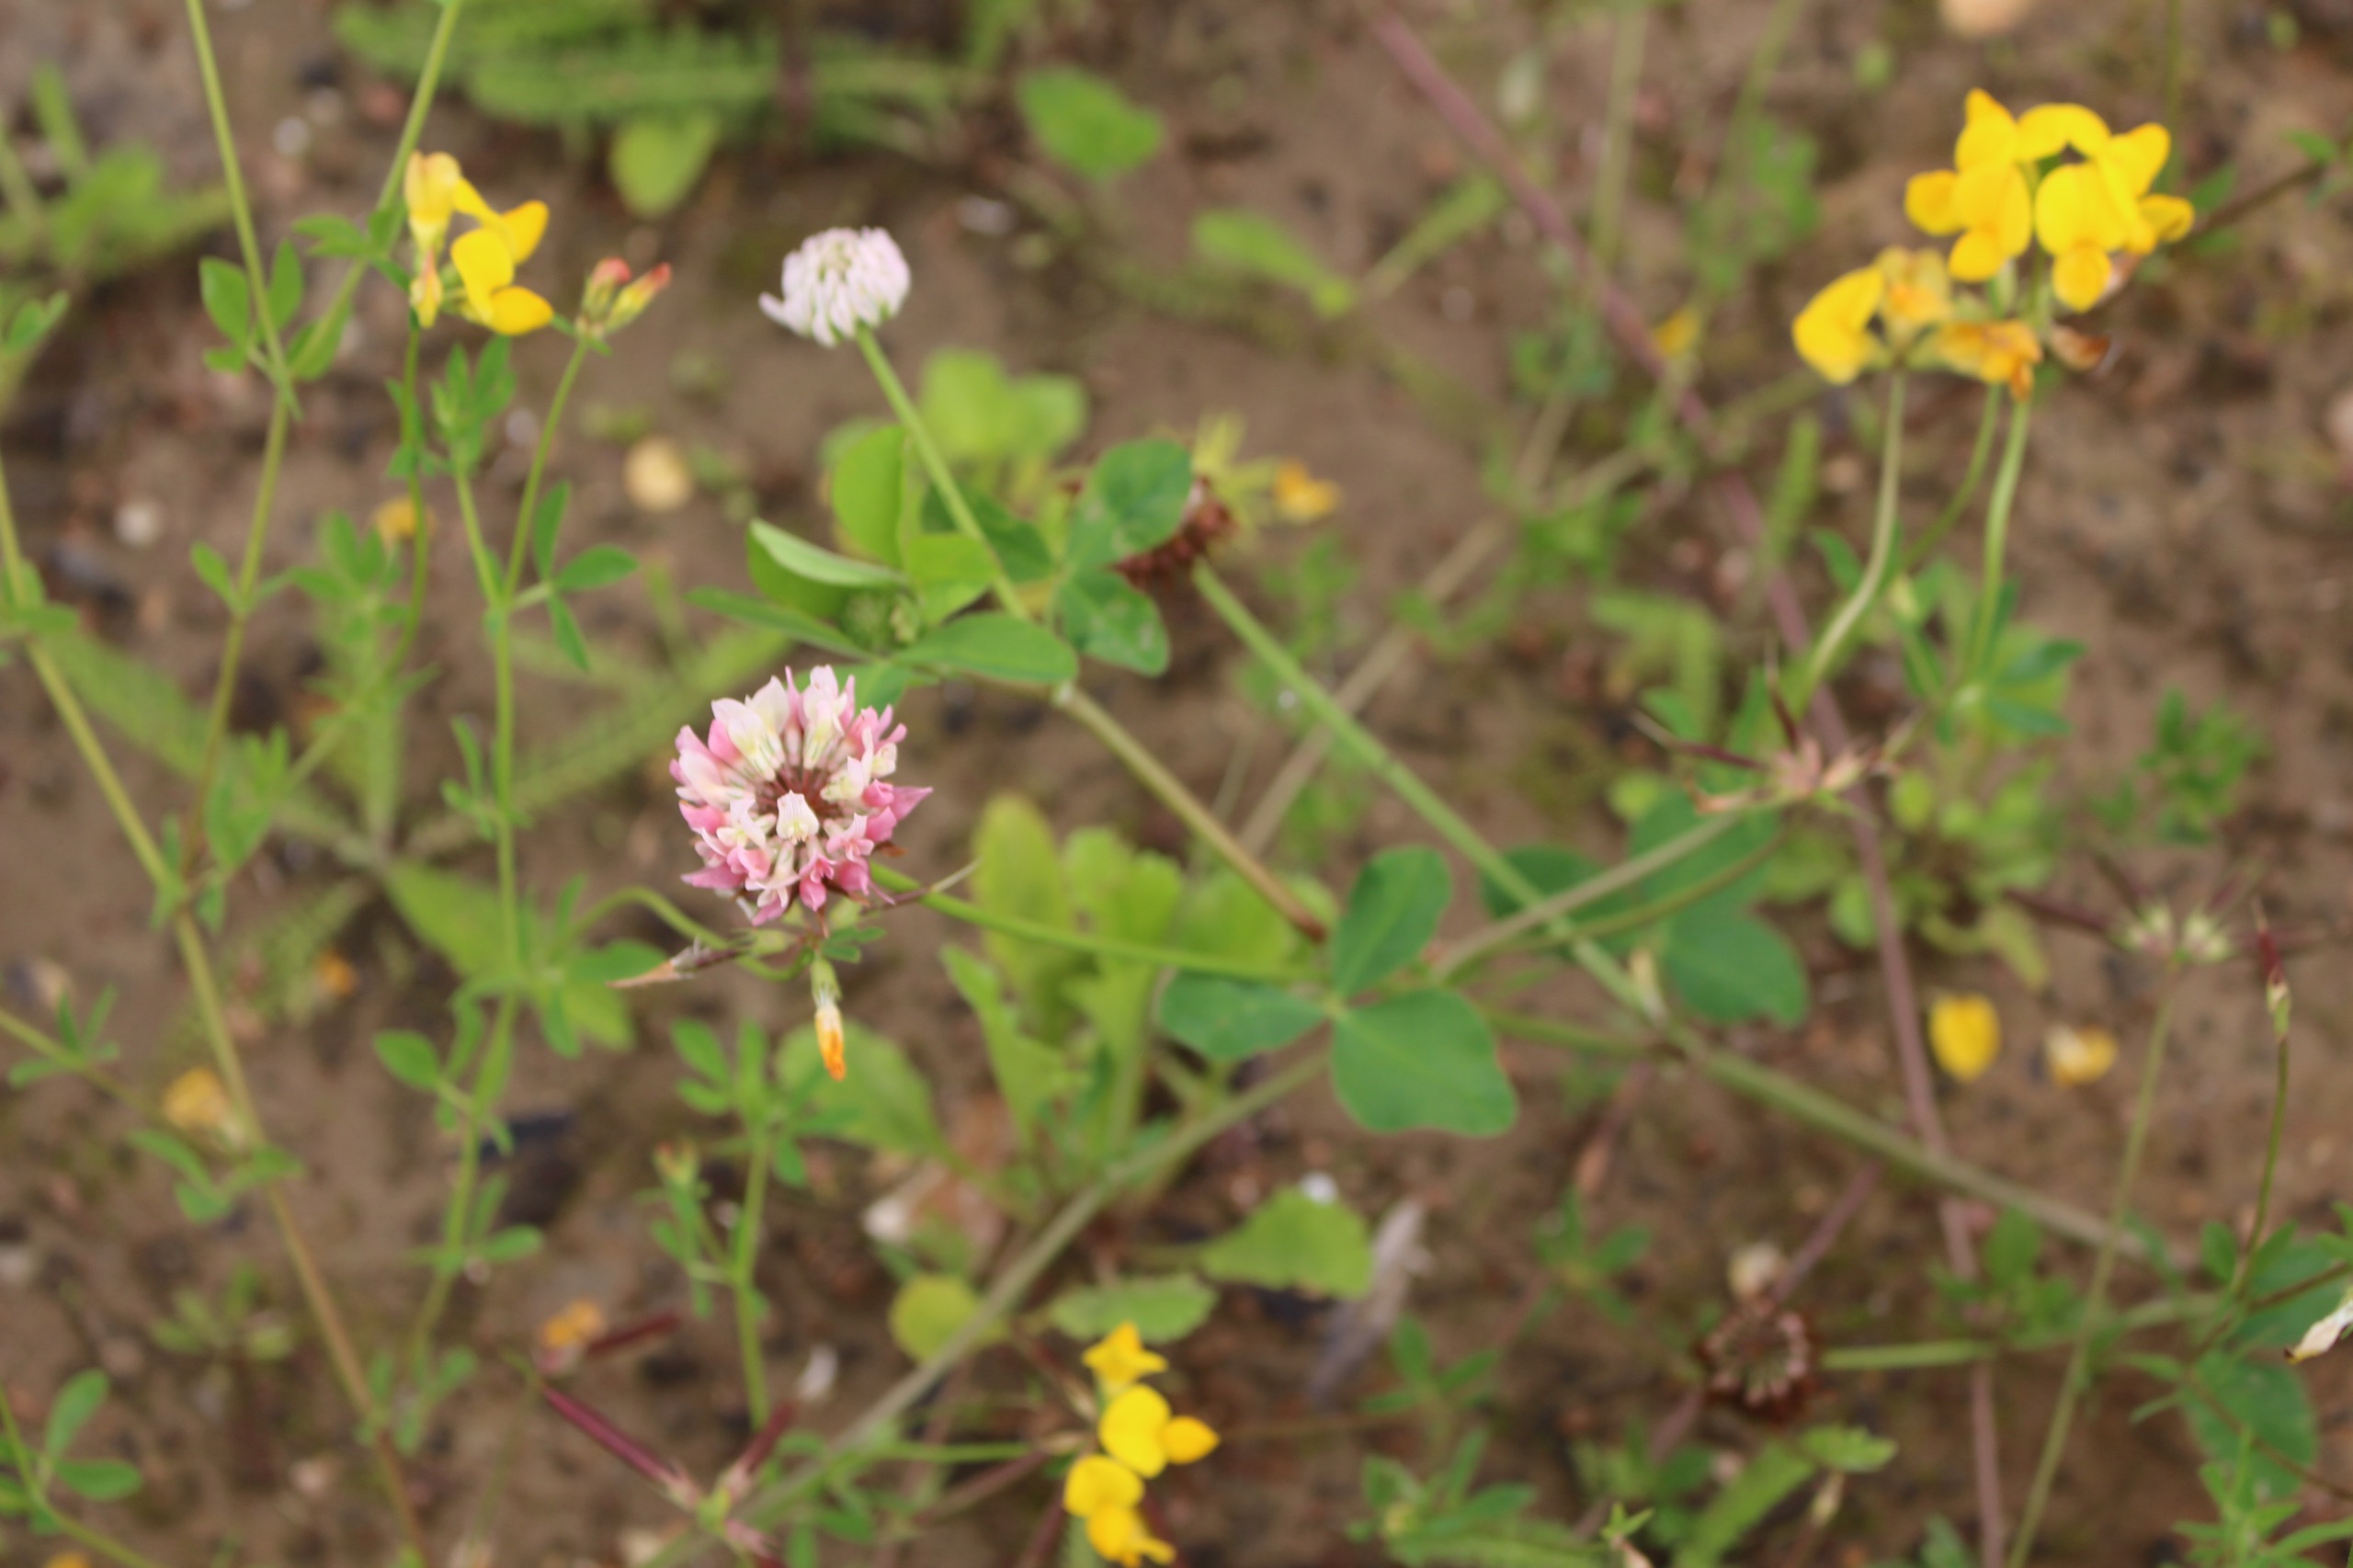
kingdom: Plantae
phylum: Tracheophyta
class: Magnoliopsida
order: Fabales
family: Fabaceae
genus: Trifolium
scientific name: Trifolium hybridum
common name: Alsike-kløver
